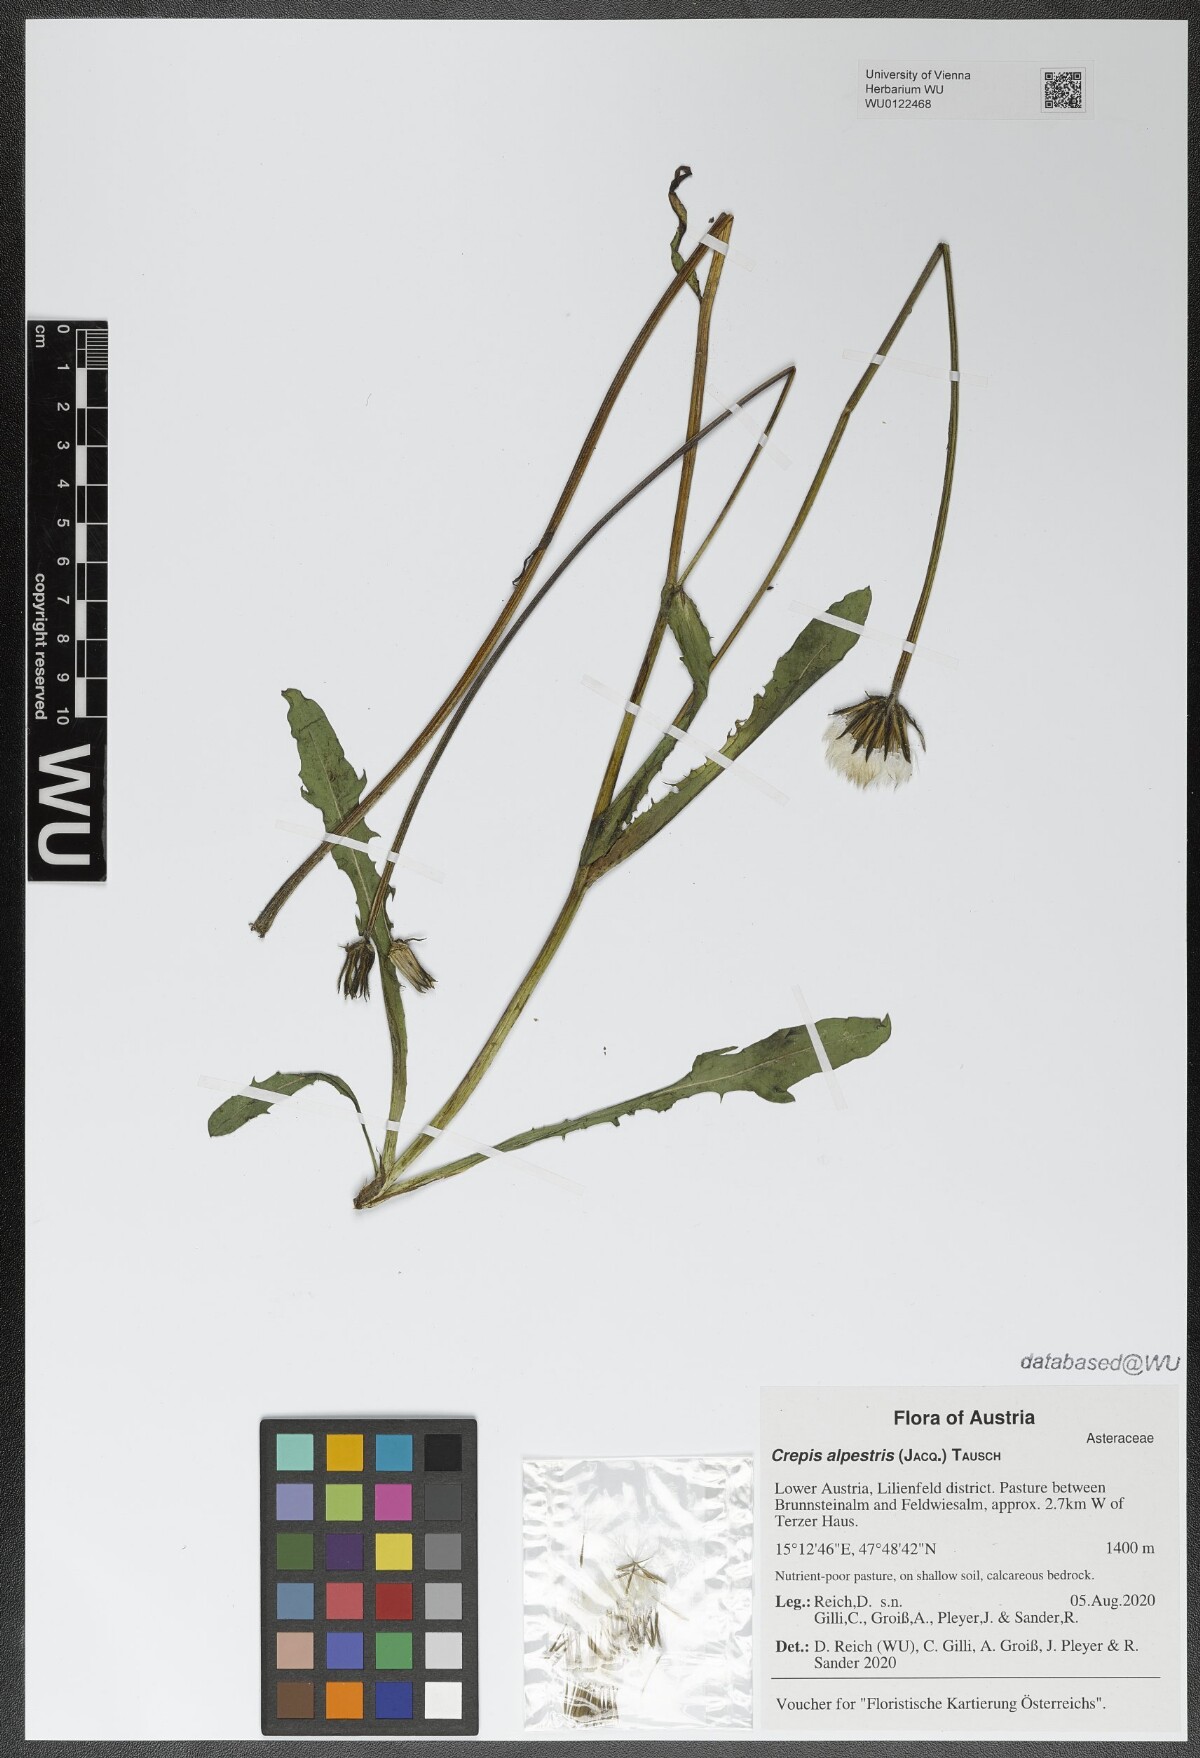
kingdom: Plantae
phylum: Tracheophyta
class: Magnoliopsida
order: Asterales
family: Asteraceae
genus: Crepis
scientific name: Crepis alpestris
